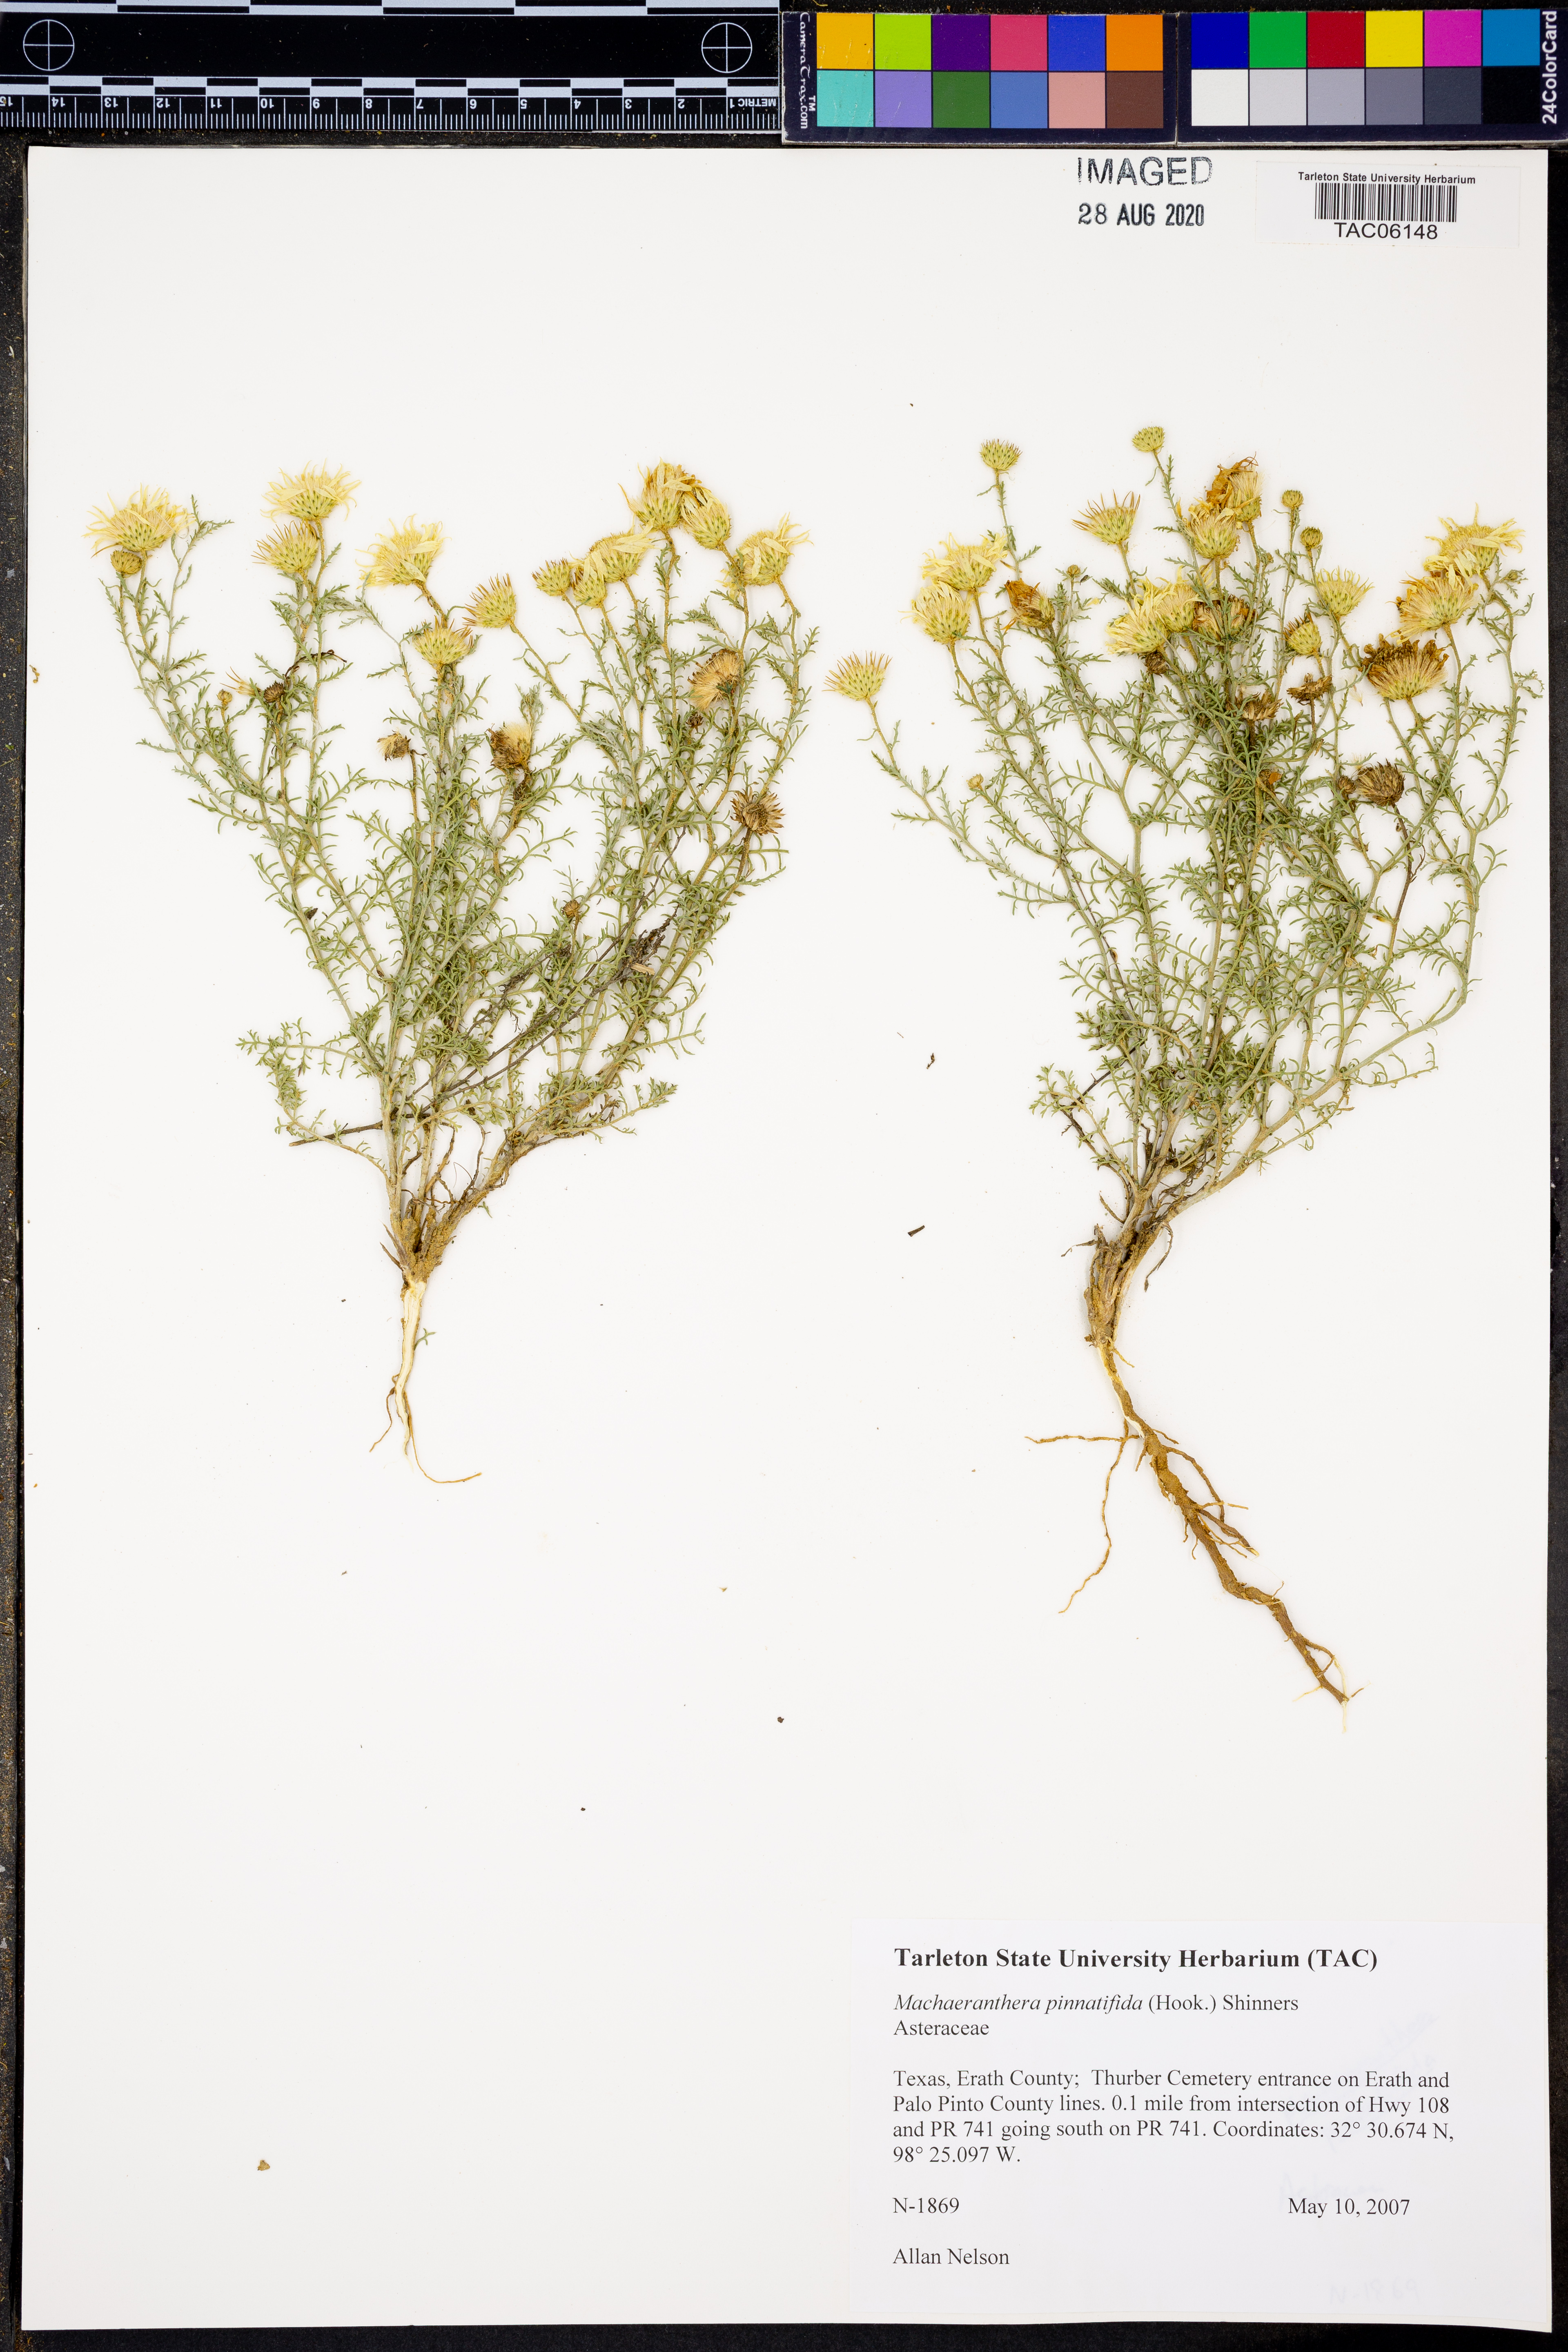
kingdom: Plantae
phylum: Tracheophyta
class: Magnoliopsida
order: Asterales
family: Asteraceae
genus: Xanthisma
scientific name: Xanthisma spinulosum
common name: Spiny goldenweed
